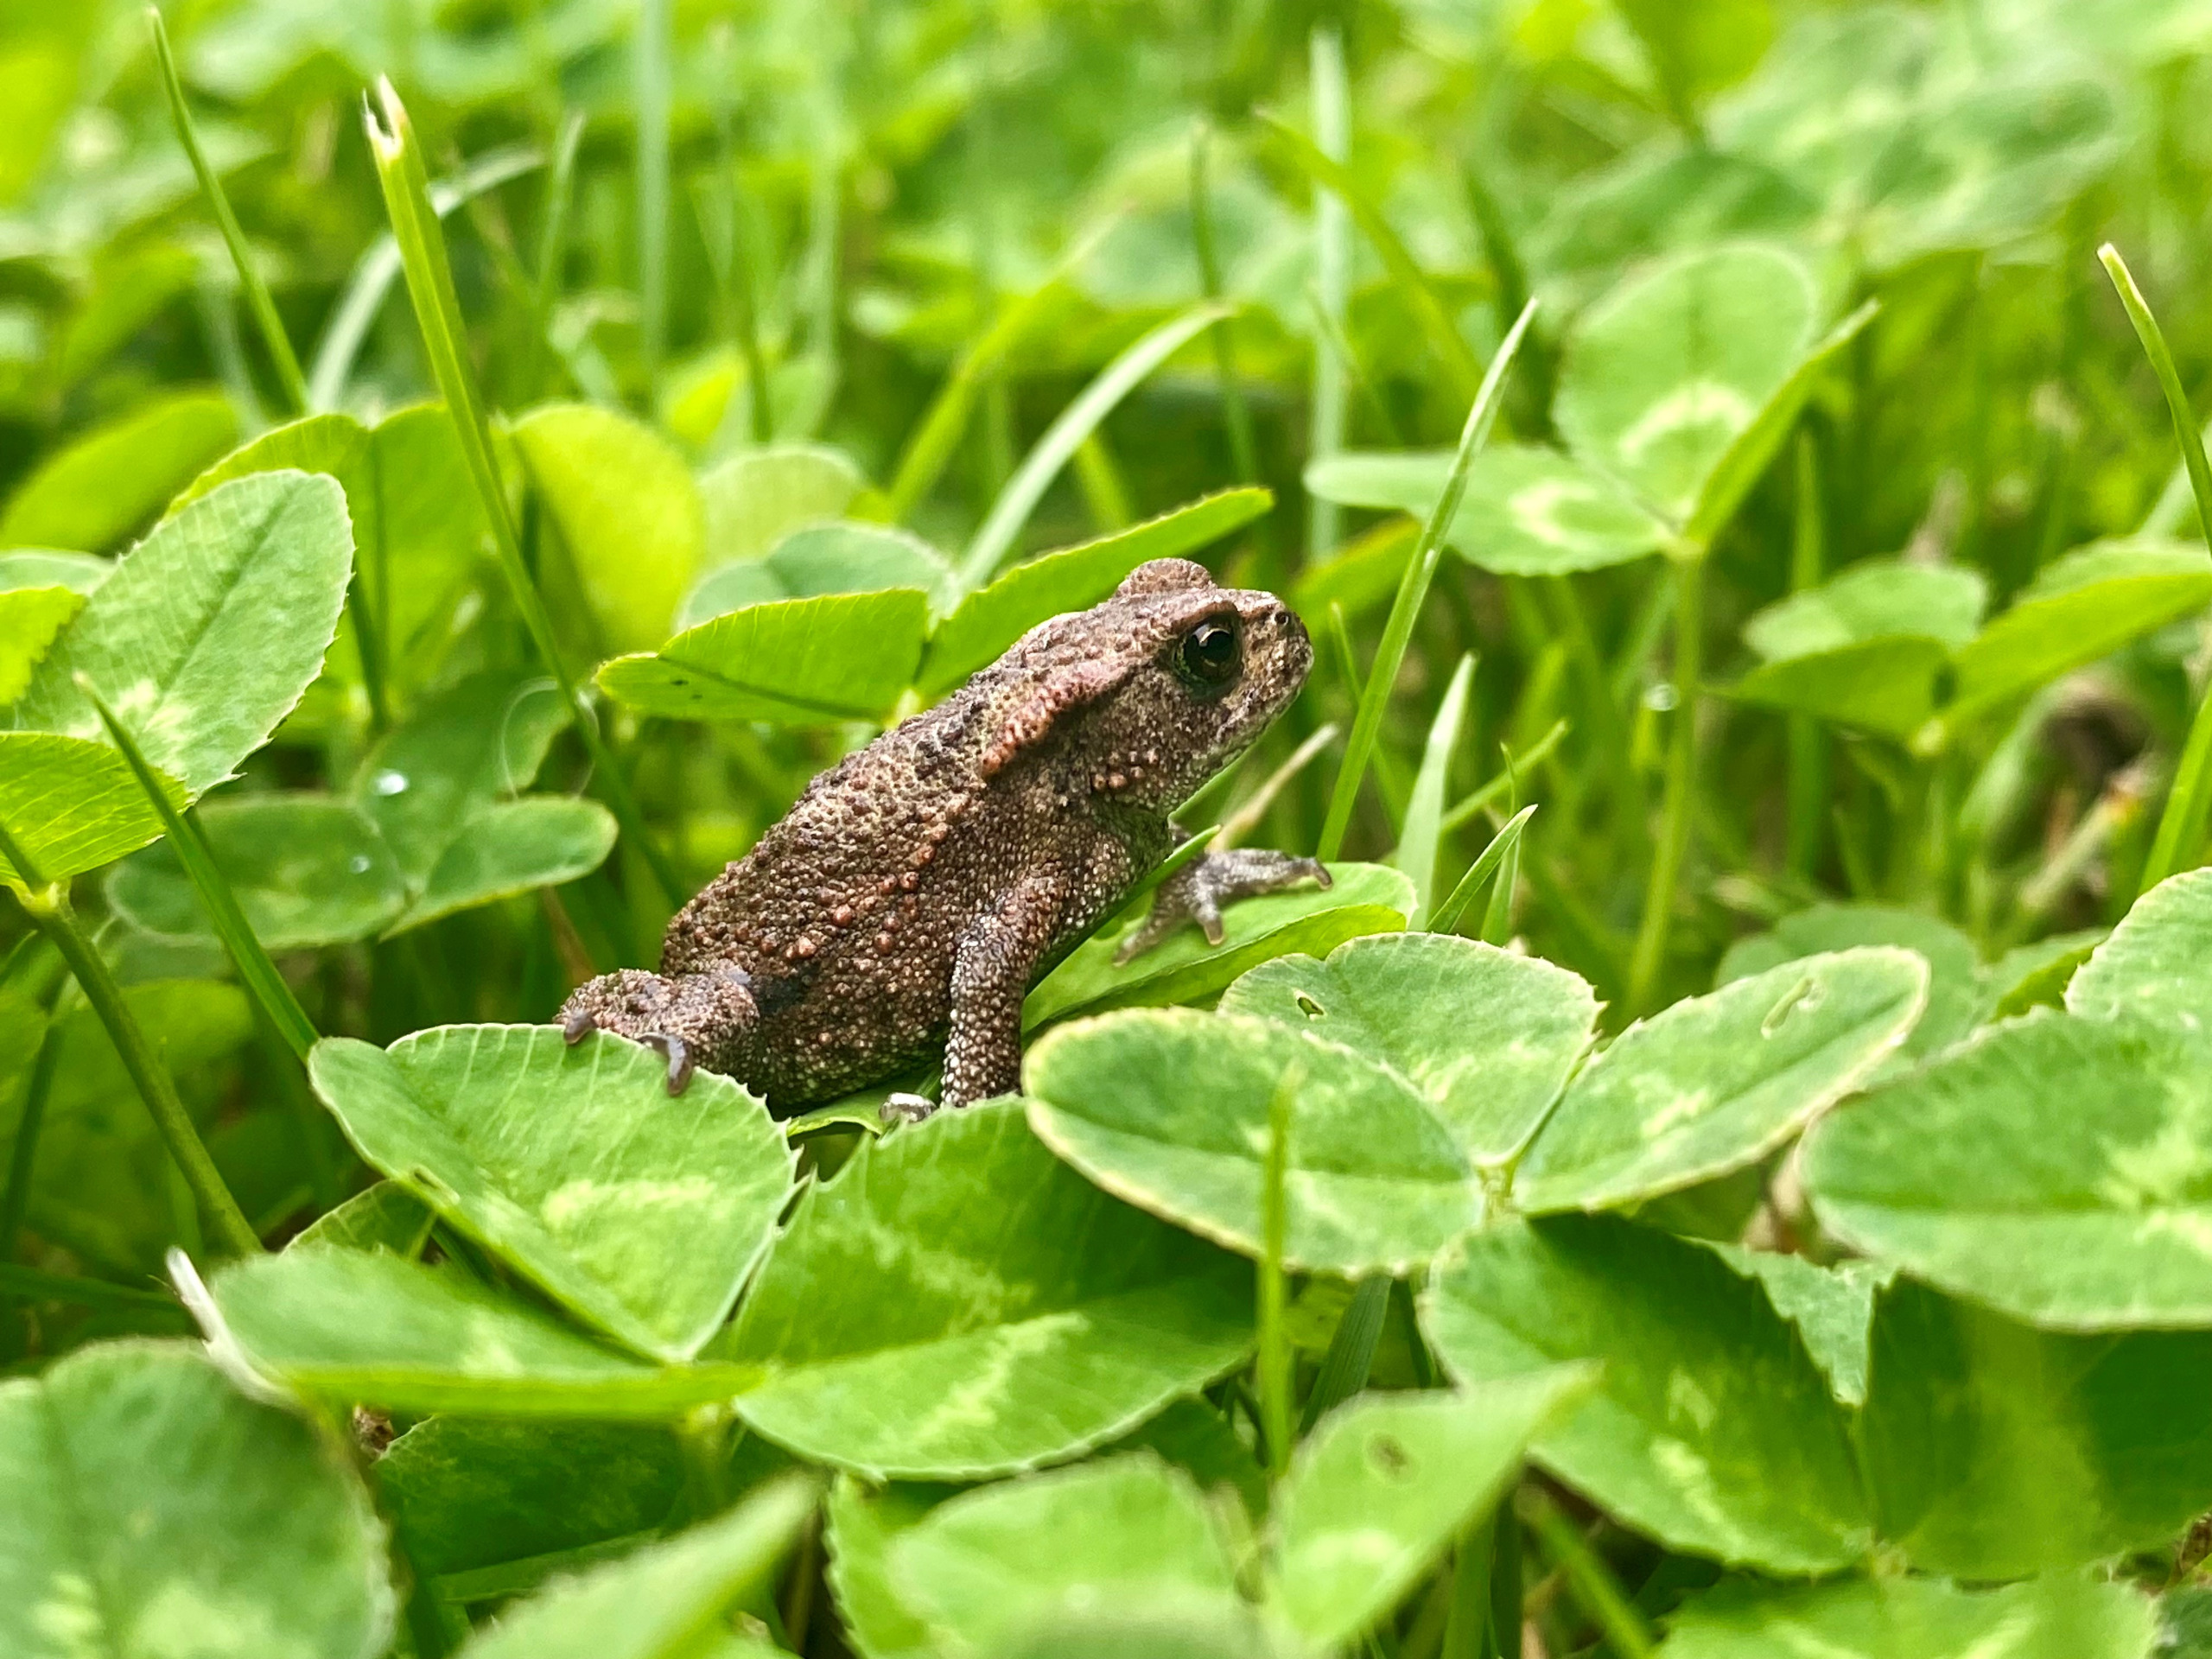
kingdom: Animalia
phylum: Chordata
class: Amphibia
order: Anura
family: Bufonidae
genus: Bufo
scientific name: Bufo bufo
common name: Skrubtudse
